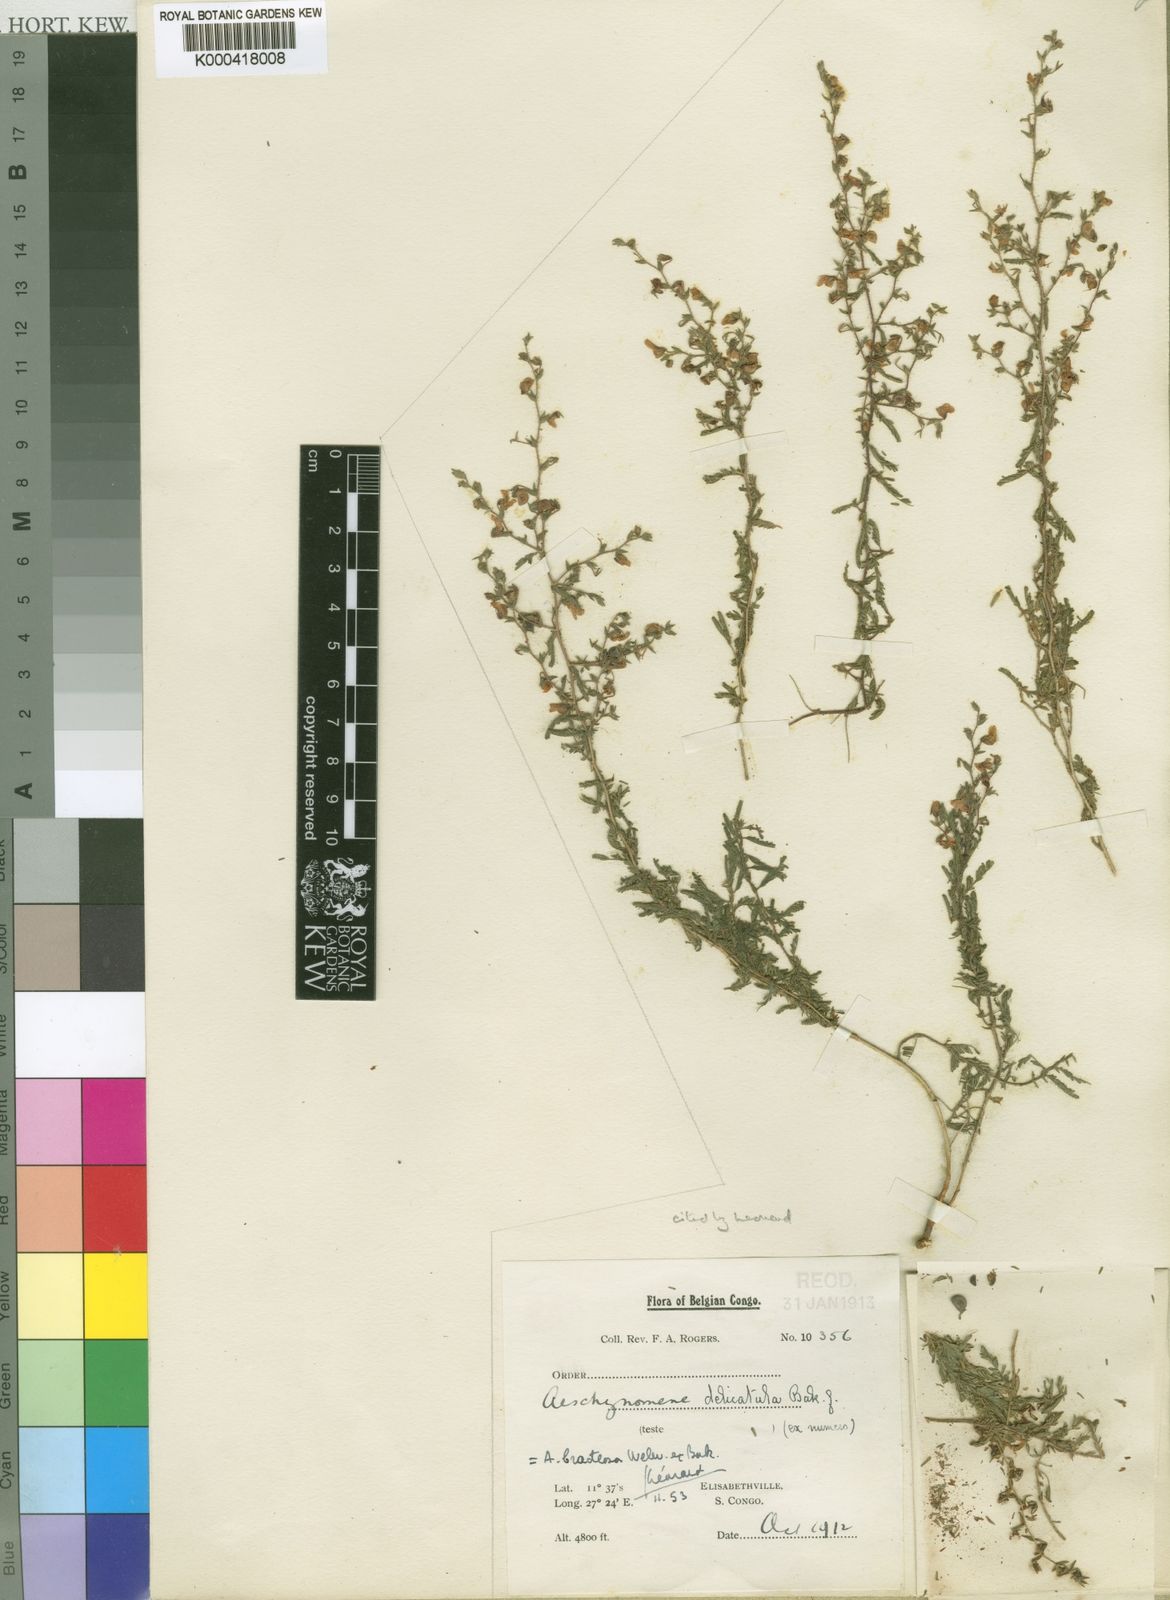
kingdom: Plantae
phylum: Tracheophyta
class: Magnoliopsida
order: Fabales
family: Fabaceae
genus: Aeschynomene
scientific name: Aeschynomene bracteosa
